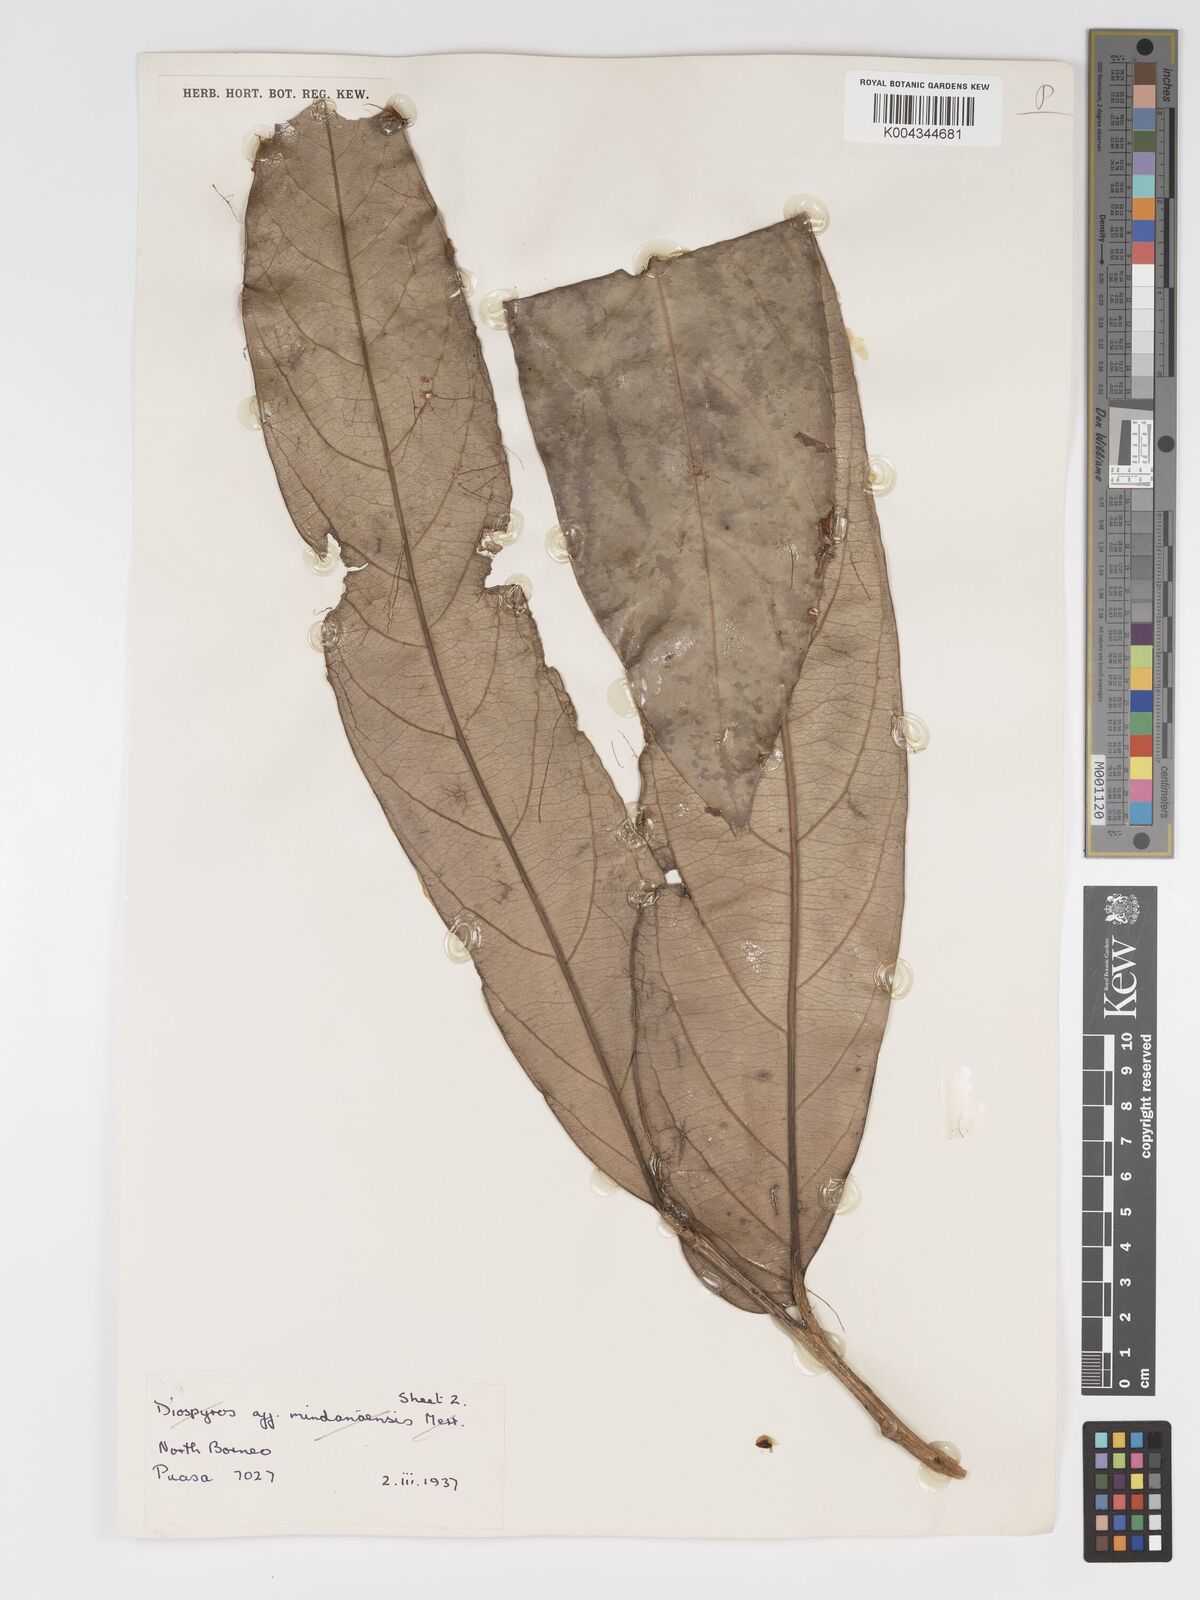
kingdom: Plantae
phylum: Tracheophyta
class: Magnoliopsida
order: Malpighiales
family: Putranjivaceae
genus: Drypetes
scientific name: Drypetes longifolia
